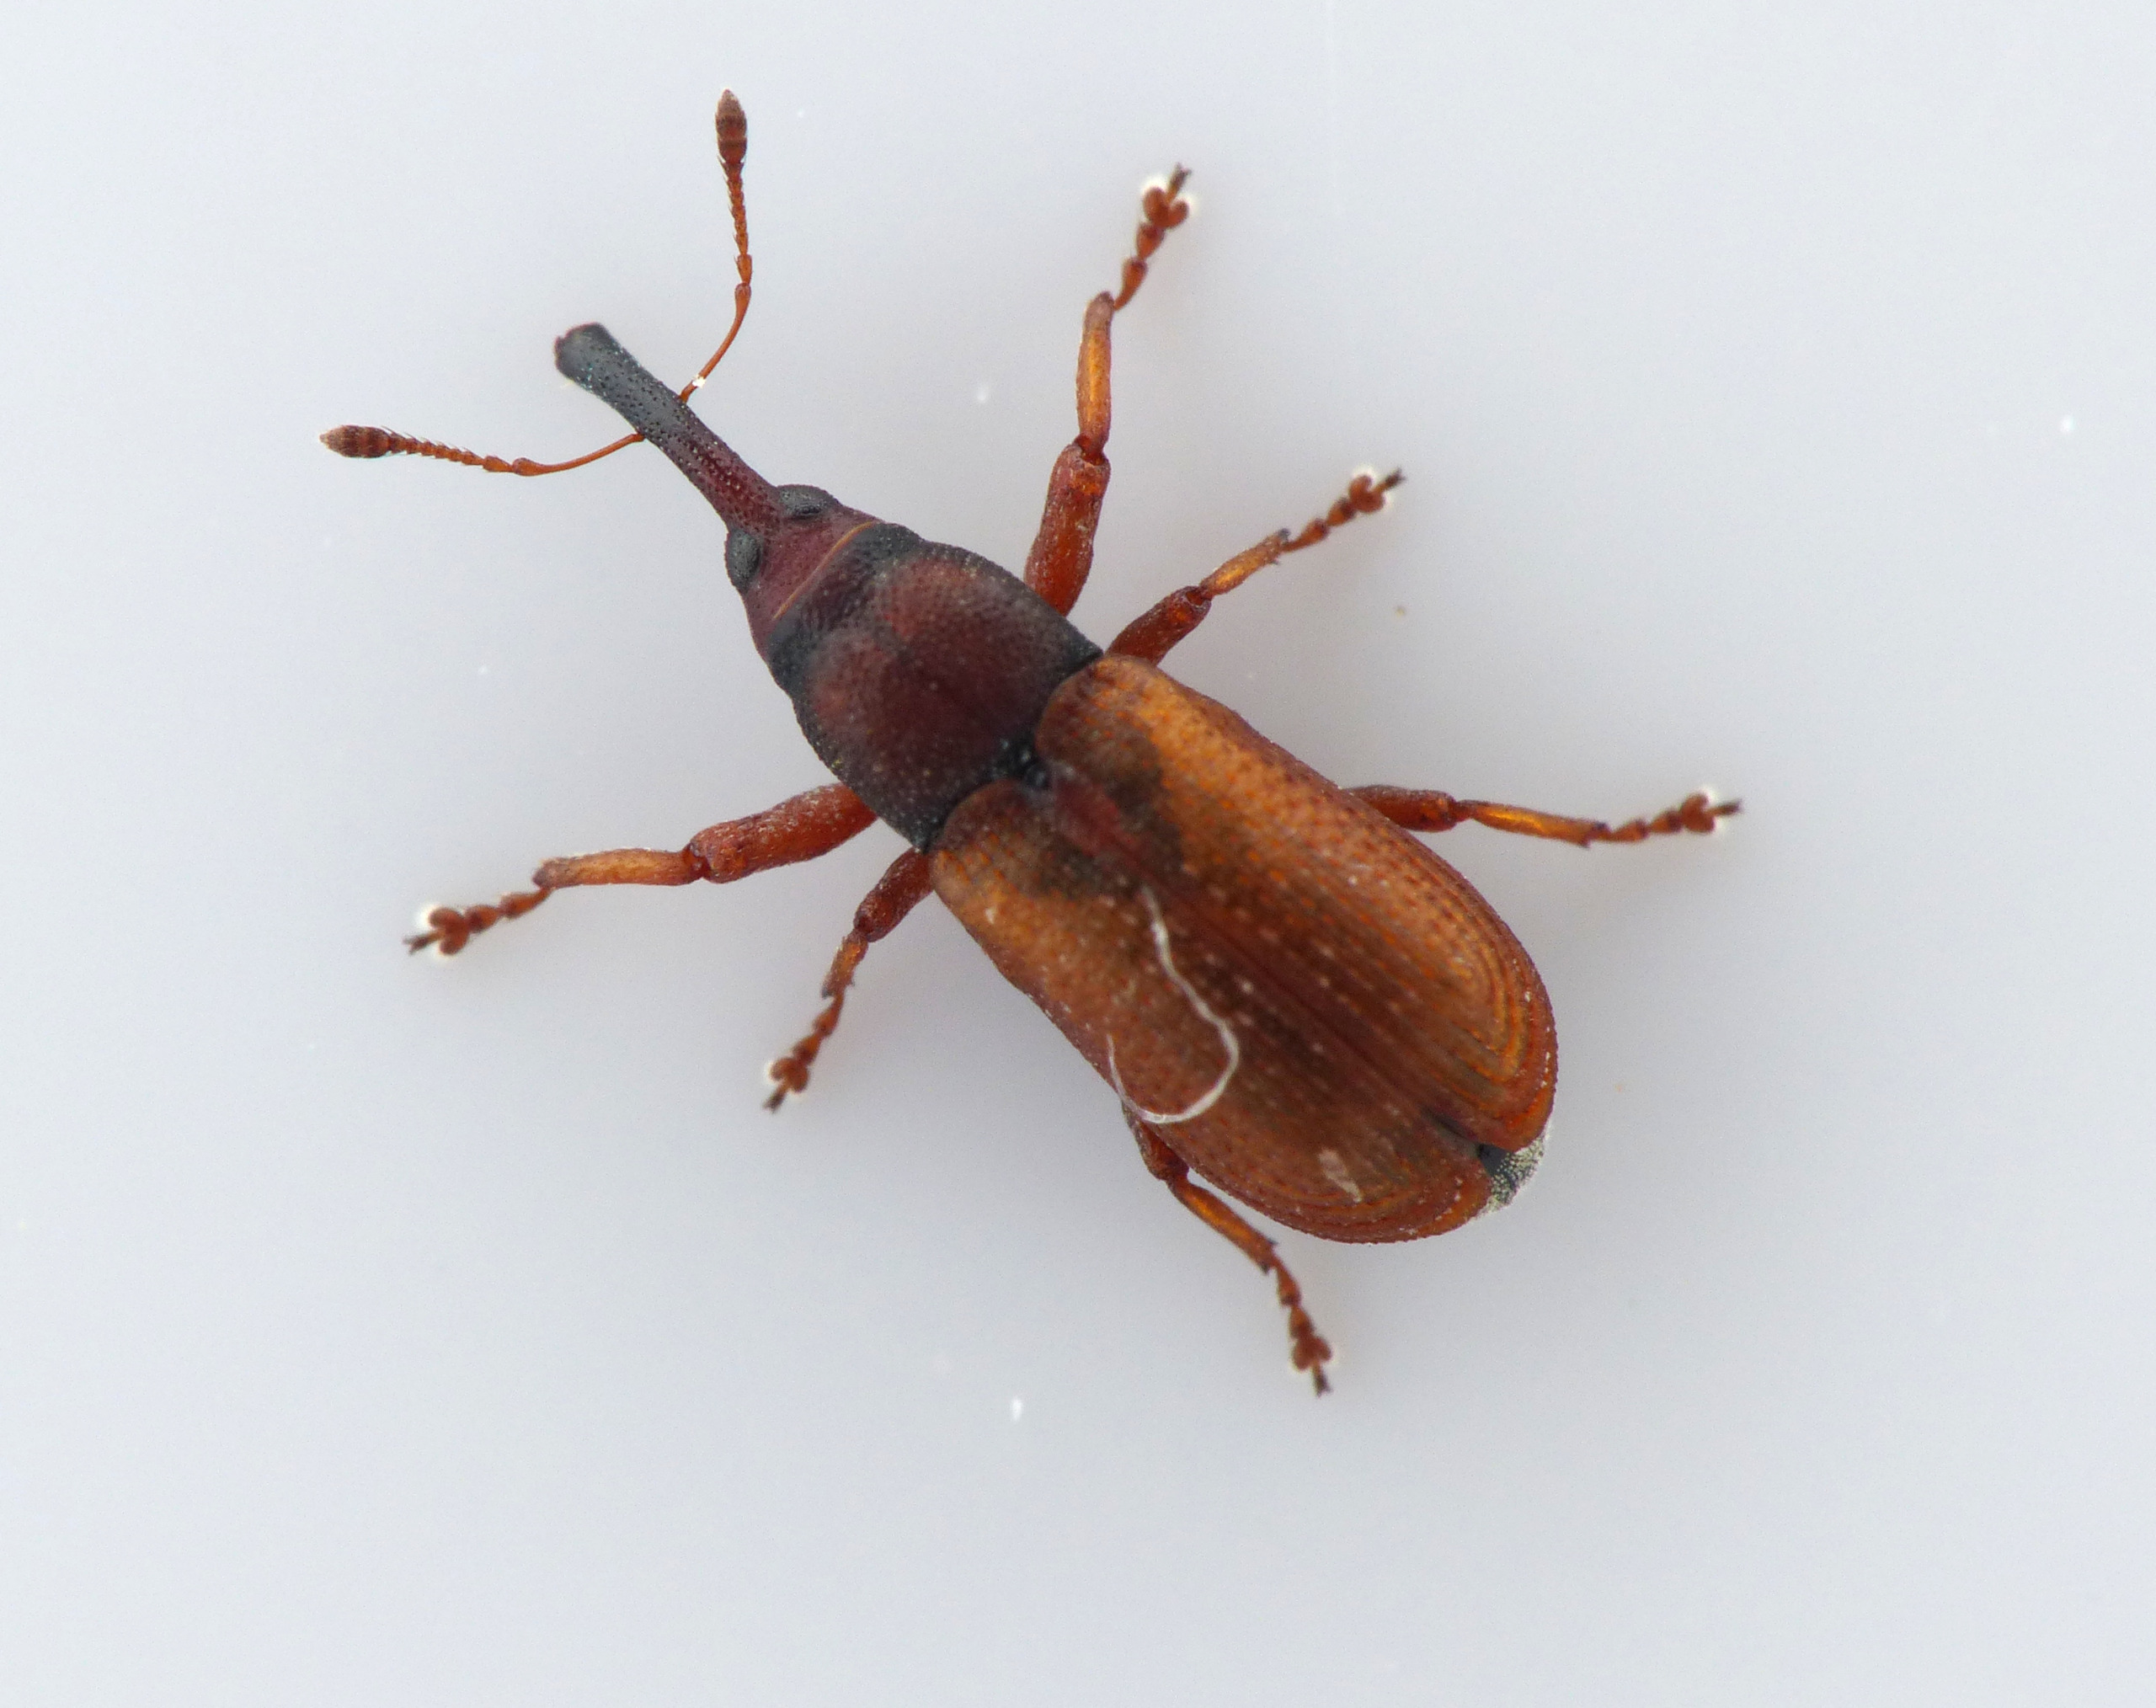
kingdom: Animalia
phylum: Arthropoda
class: Insecta
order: Coleoptera
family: Curculionidae
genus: Magdalis
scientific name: Magdalis rufa
